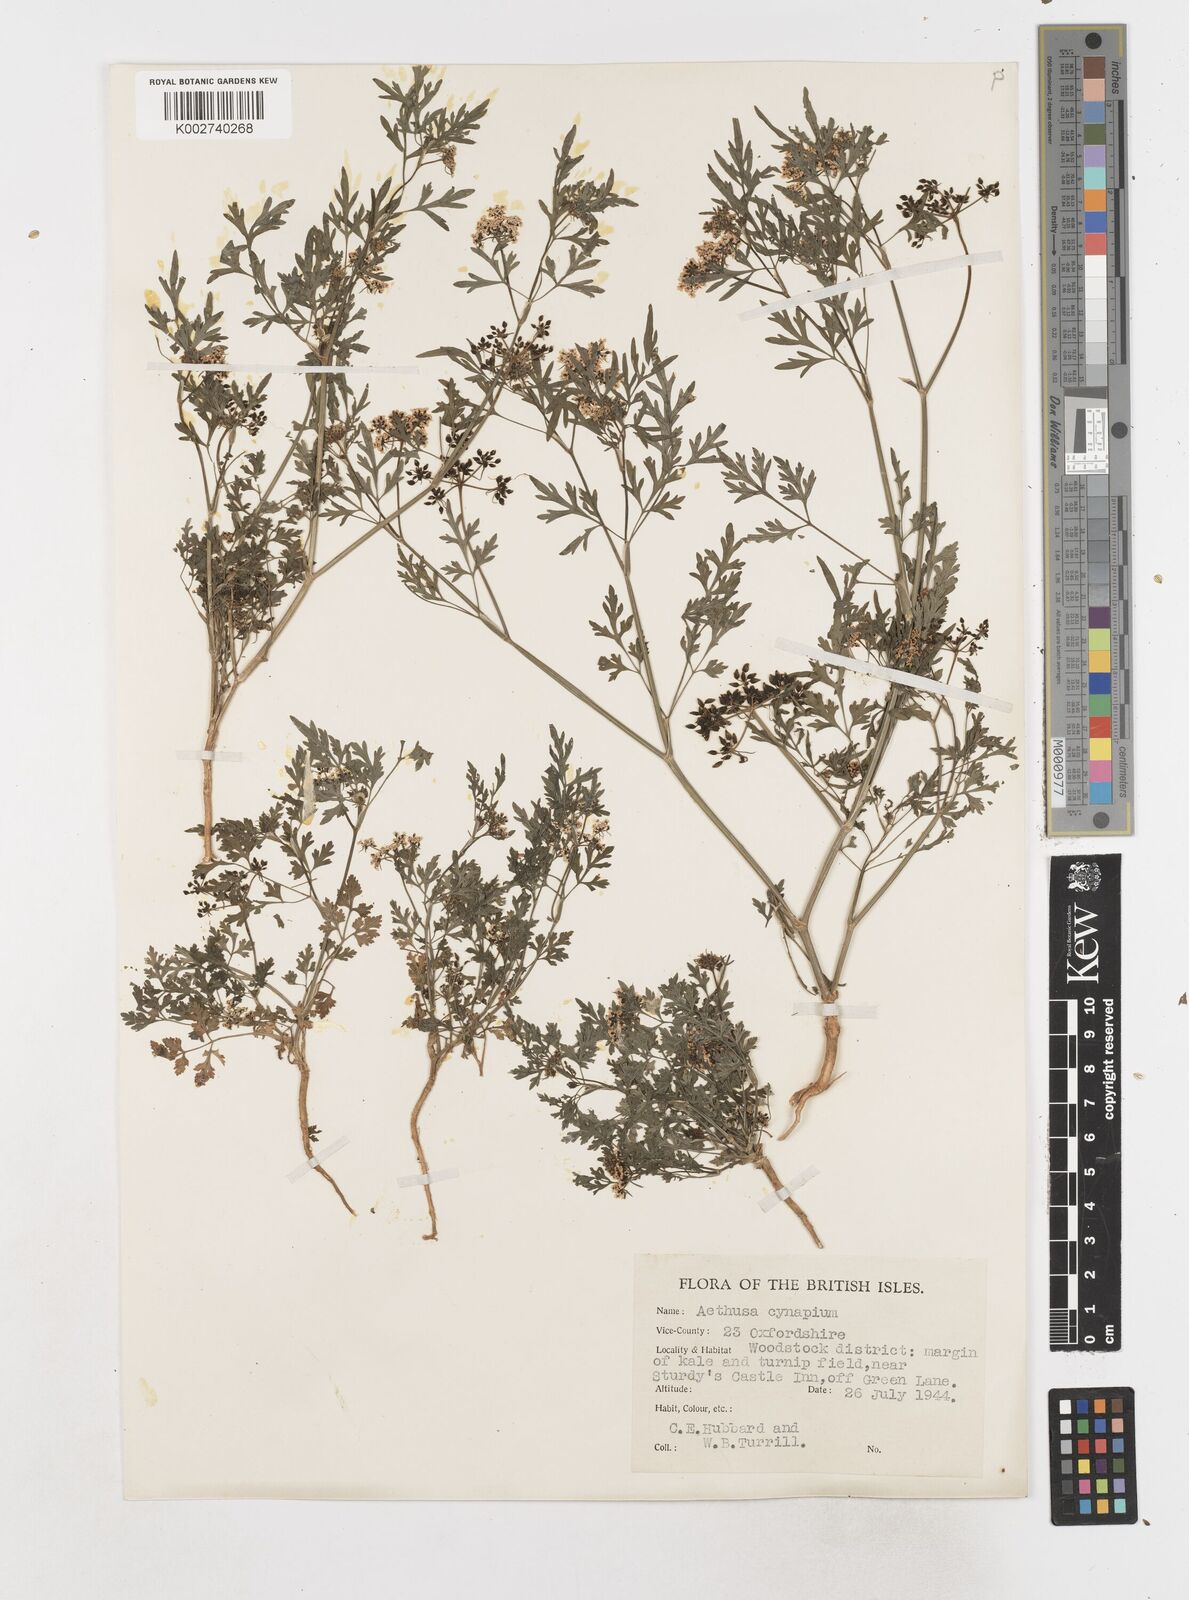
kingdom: Plantae
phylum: Tracheophyta
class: Magnoliopsida
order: Apiales
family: Apiaceae
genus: Aethusa
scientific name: Aethusa cynapium
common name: Fool's parsley
